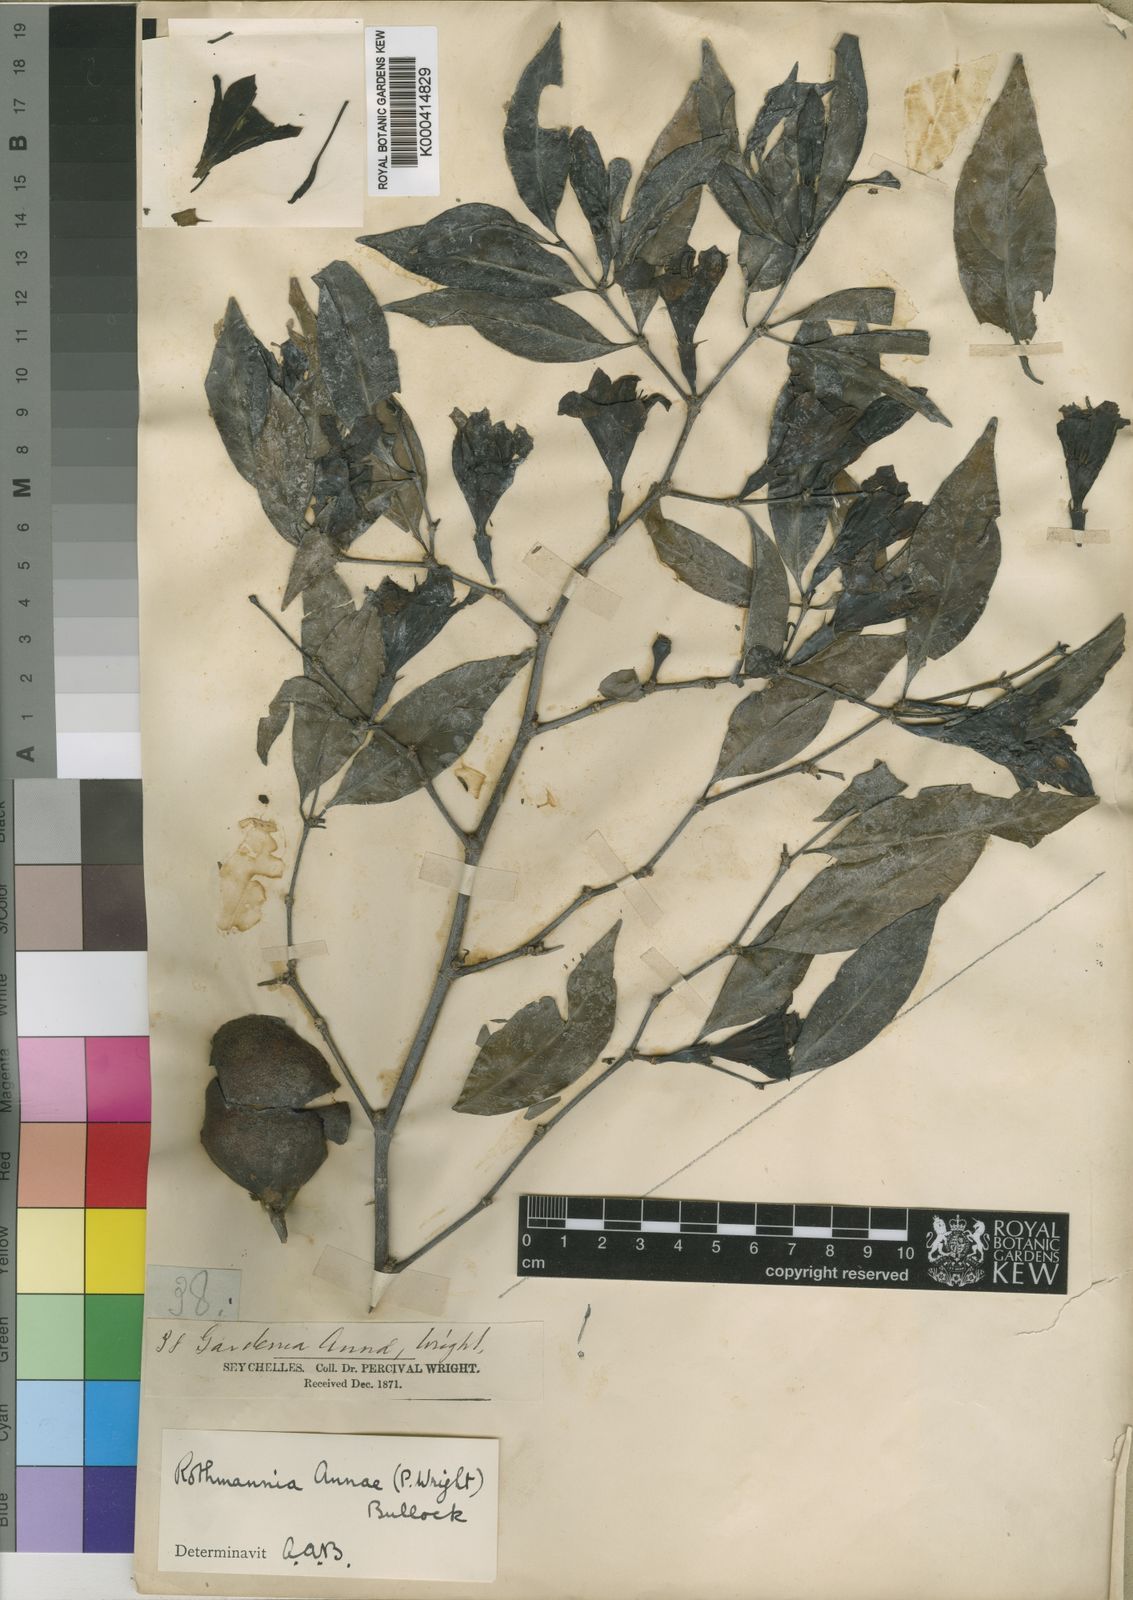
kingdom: Plantae
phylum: Tracheophyta
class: Magnoliopsida
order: Gentianales
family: Rubiaceae
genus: Rothmannia
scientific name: Rothmannia annae
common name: Wright's gardenia
